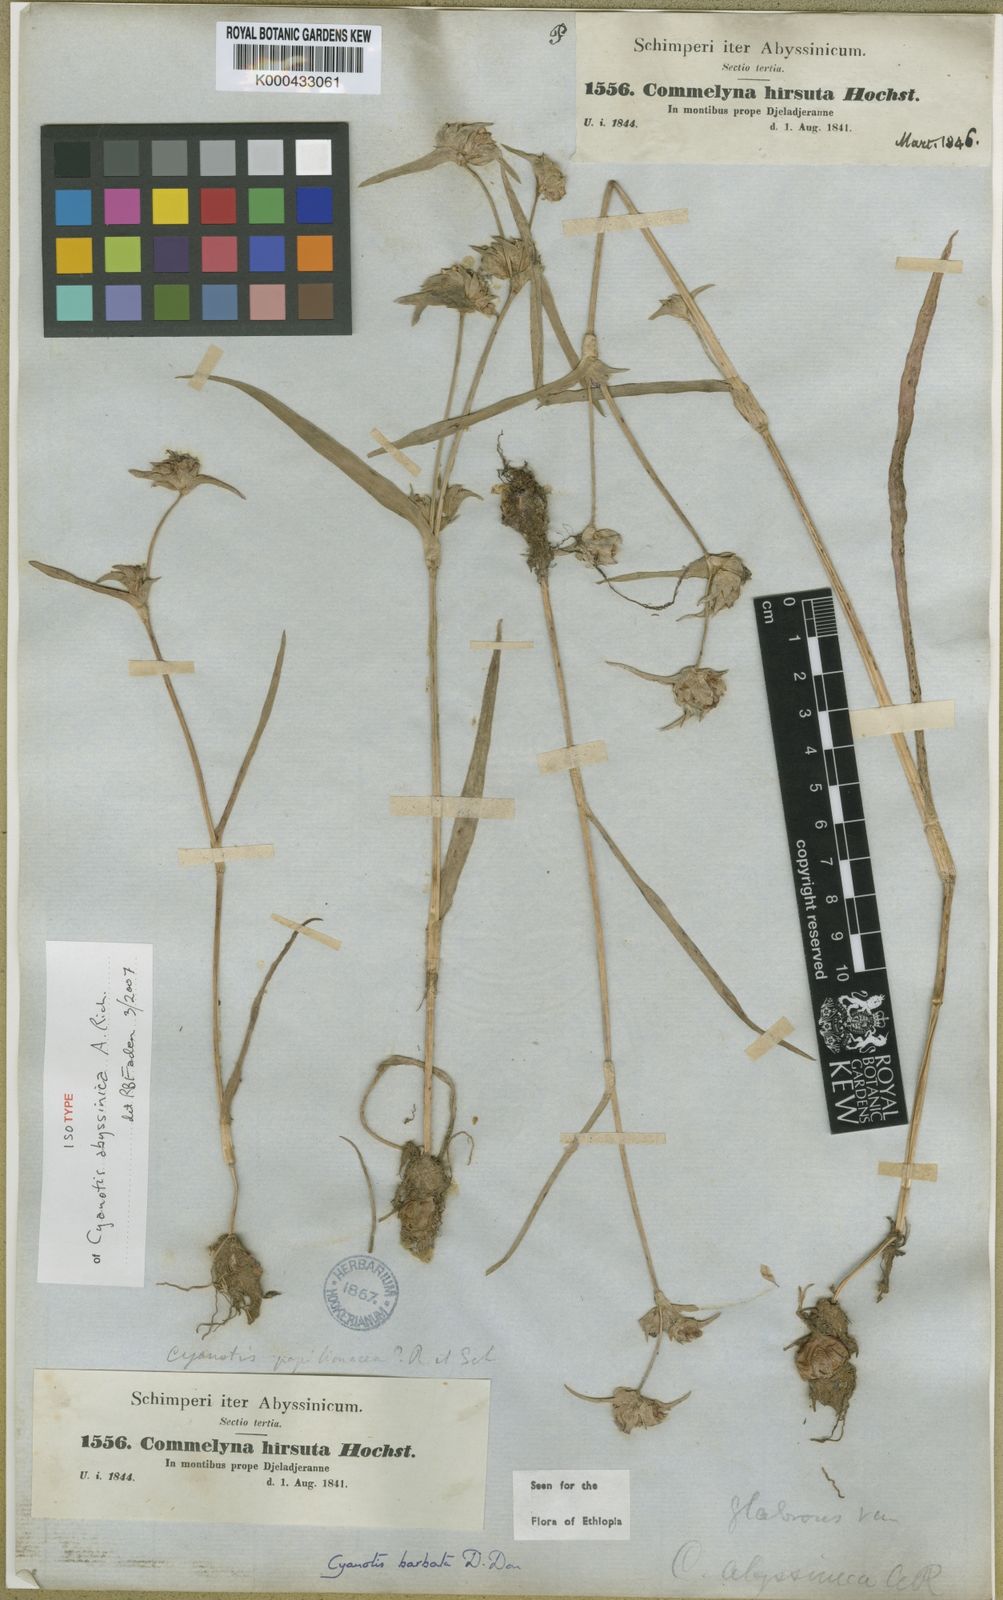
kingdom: Plantae
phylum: Tracheophyta
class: Liliopsida
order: Commelinales
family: Commelinaceae
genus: Cyanotis
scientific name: Cyanotis vaga
